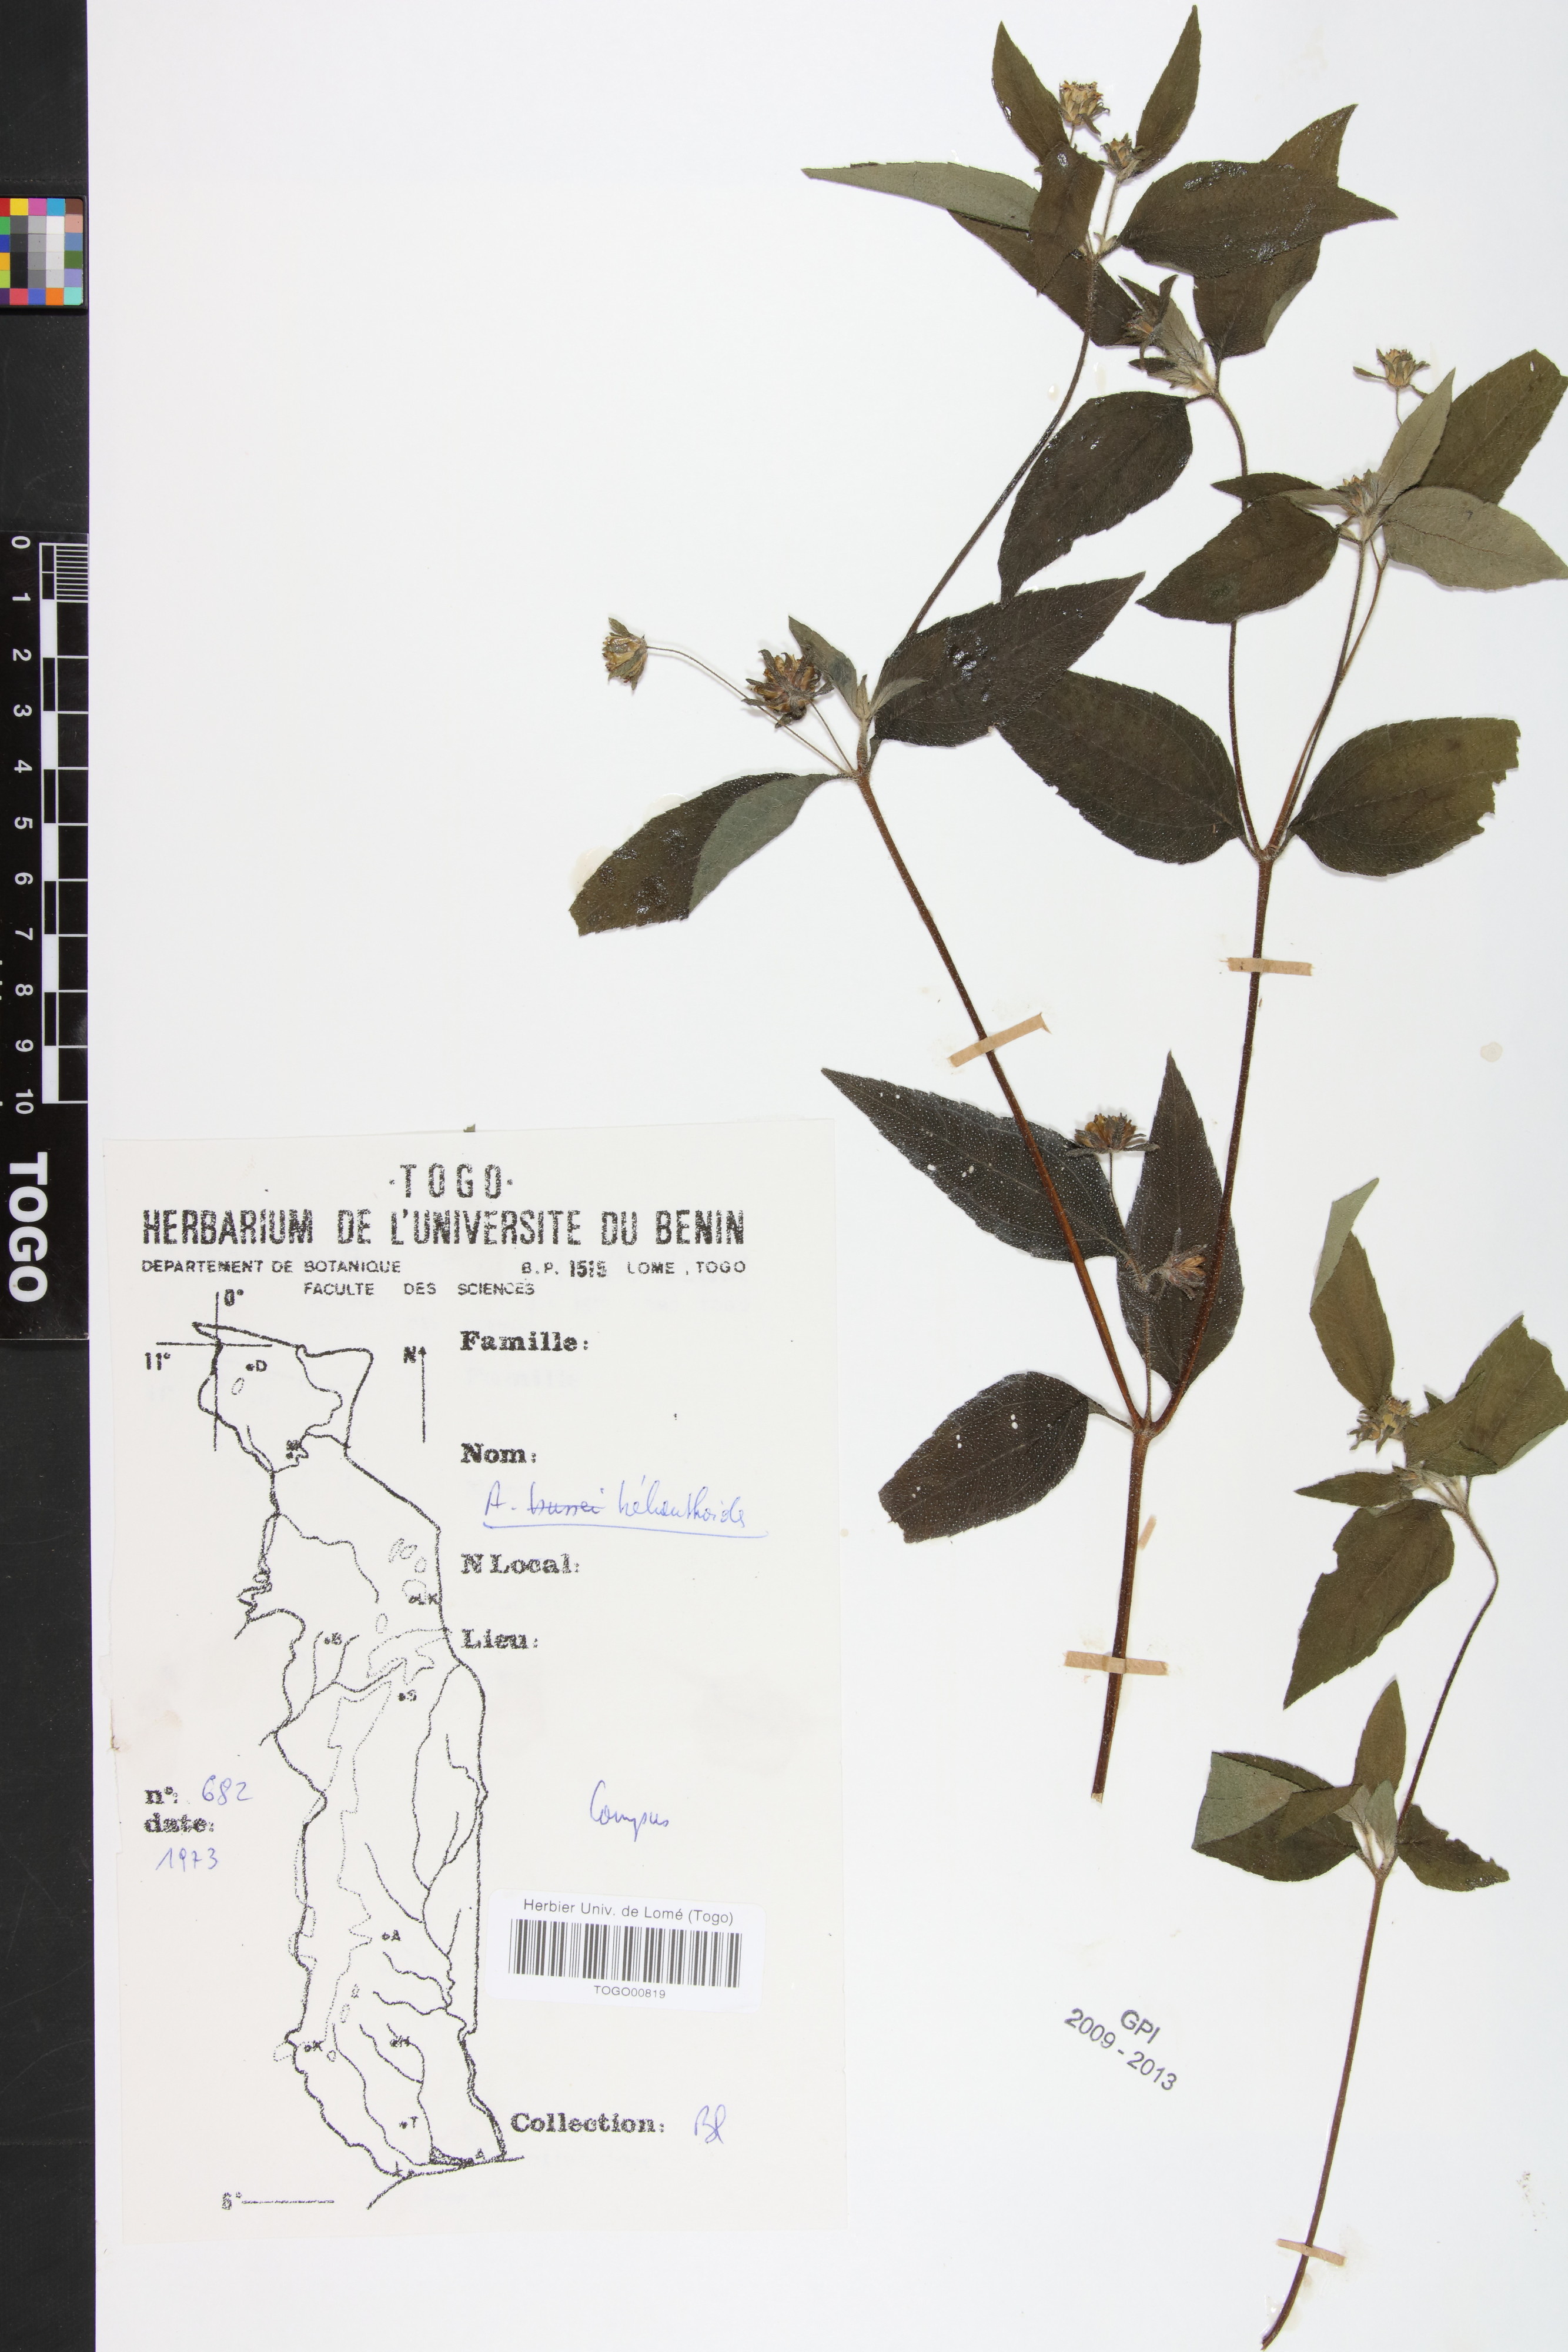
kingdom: Plantae
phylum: Tracheophyta
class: Magnoliopsida
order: Asterales
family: Asteraceae
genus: Aspilia
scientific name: Aspilia helianthoides
